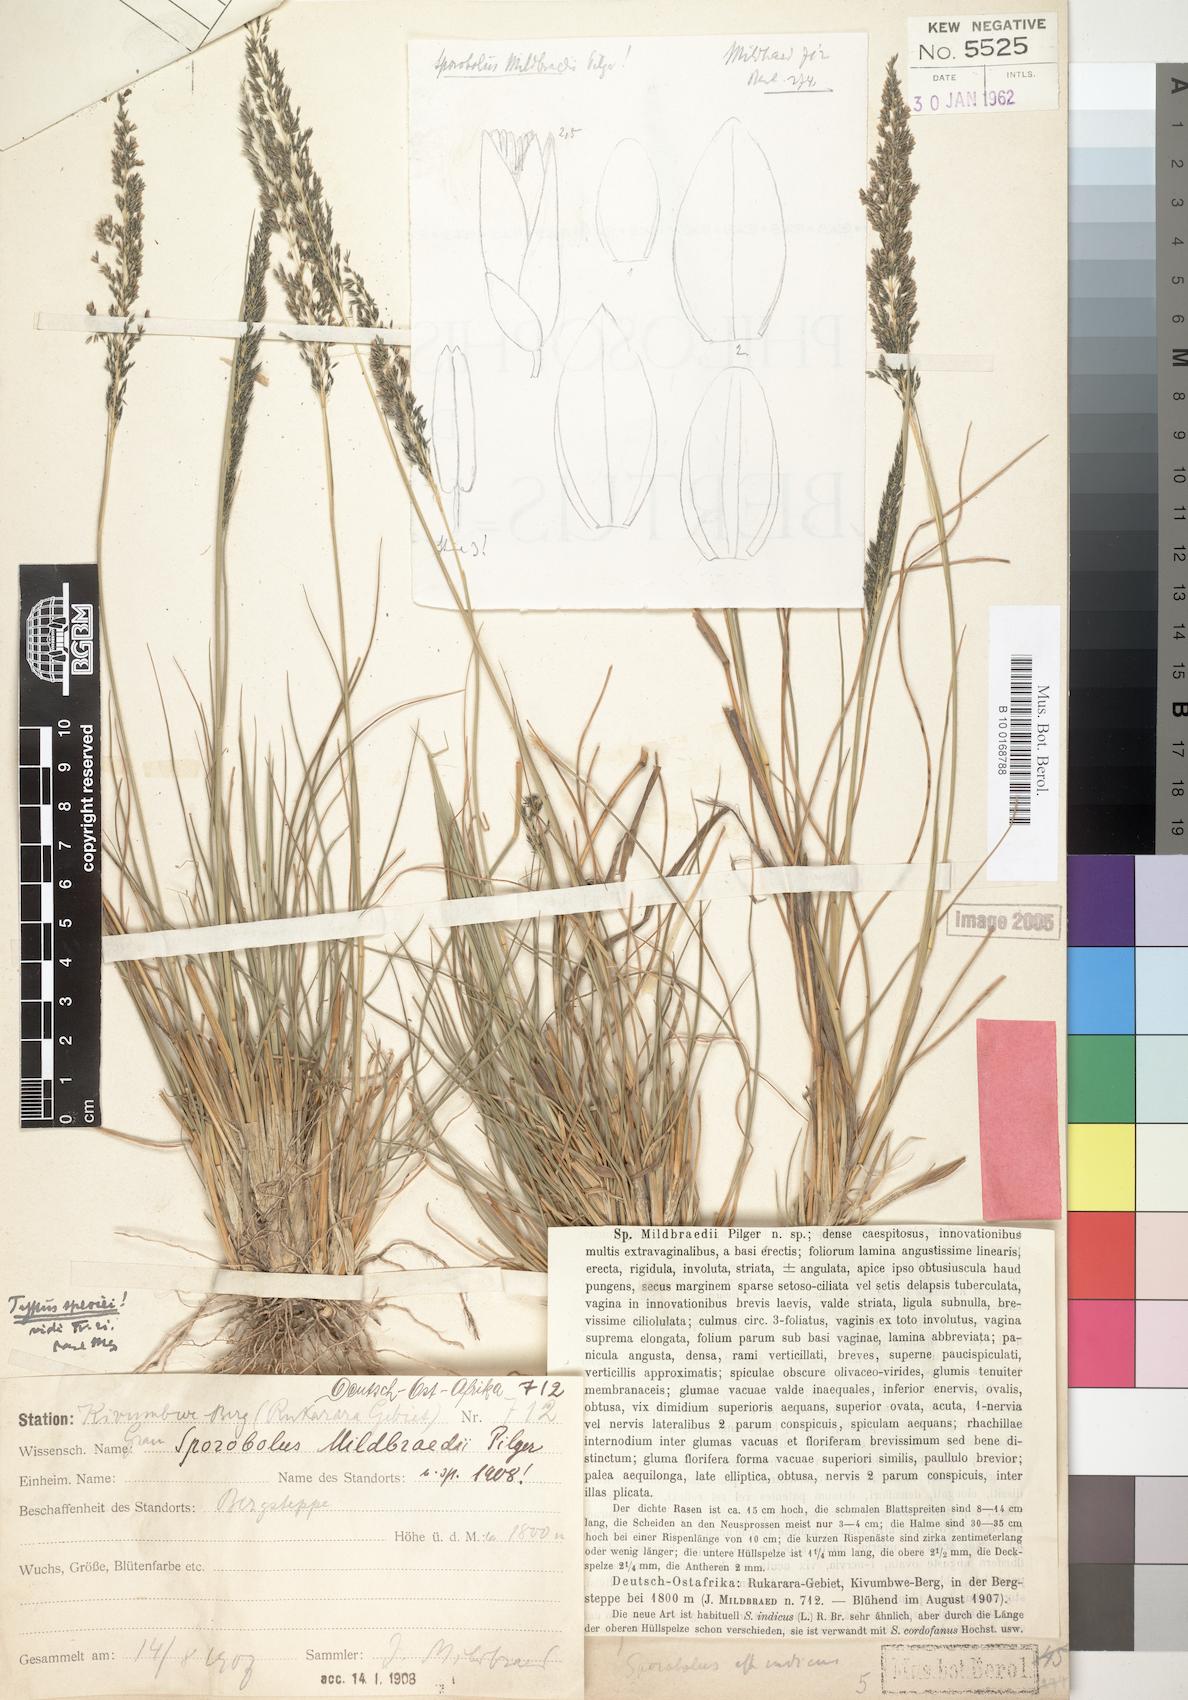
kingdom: Plantae
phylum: Tracheophyta
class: Liliopsida
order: Poales
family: Poaceae
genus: Sporobolus
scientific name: Sporobolus mildbraedii
